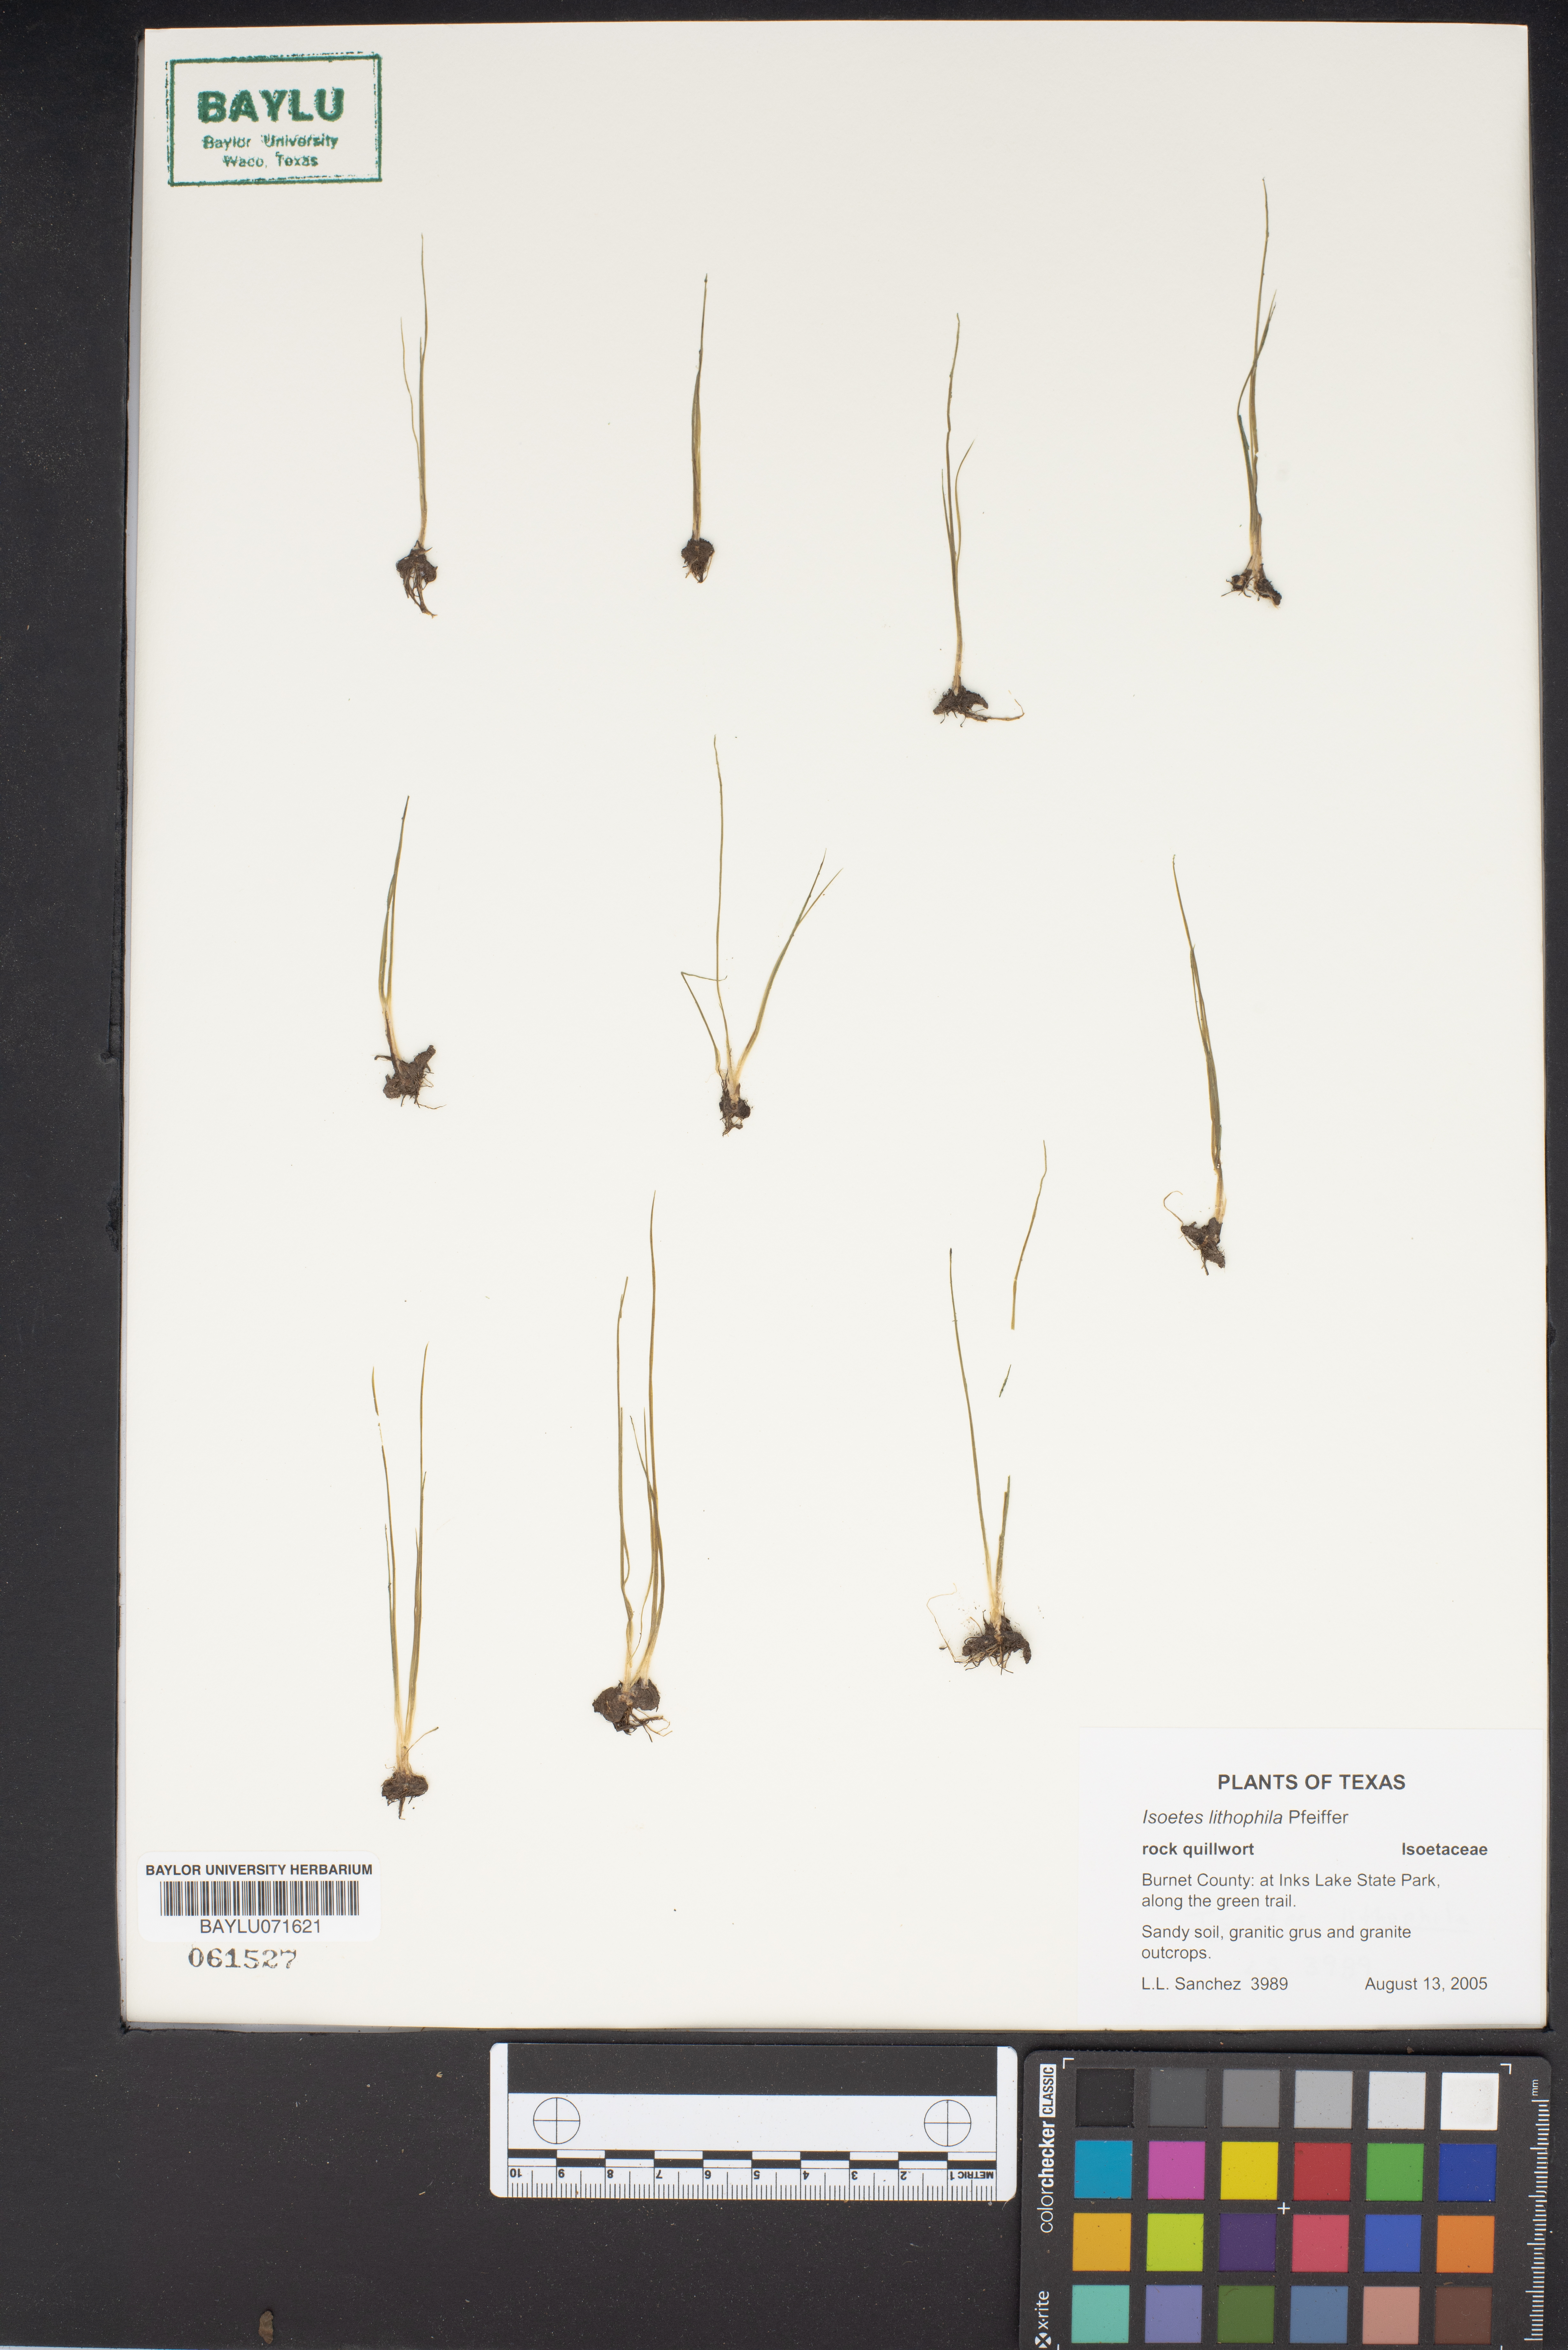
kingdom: Plantae
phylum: Tracheophyta
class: Lycopodiopsida
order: Isoetales
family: Isoetaceae
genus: Isoetes
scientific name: Isoetes lithophila
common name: Rock quillwort
